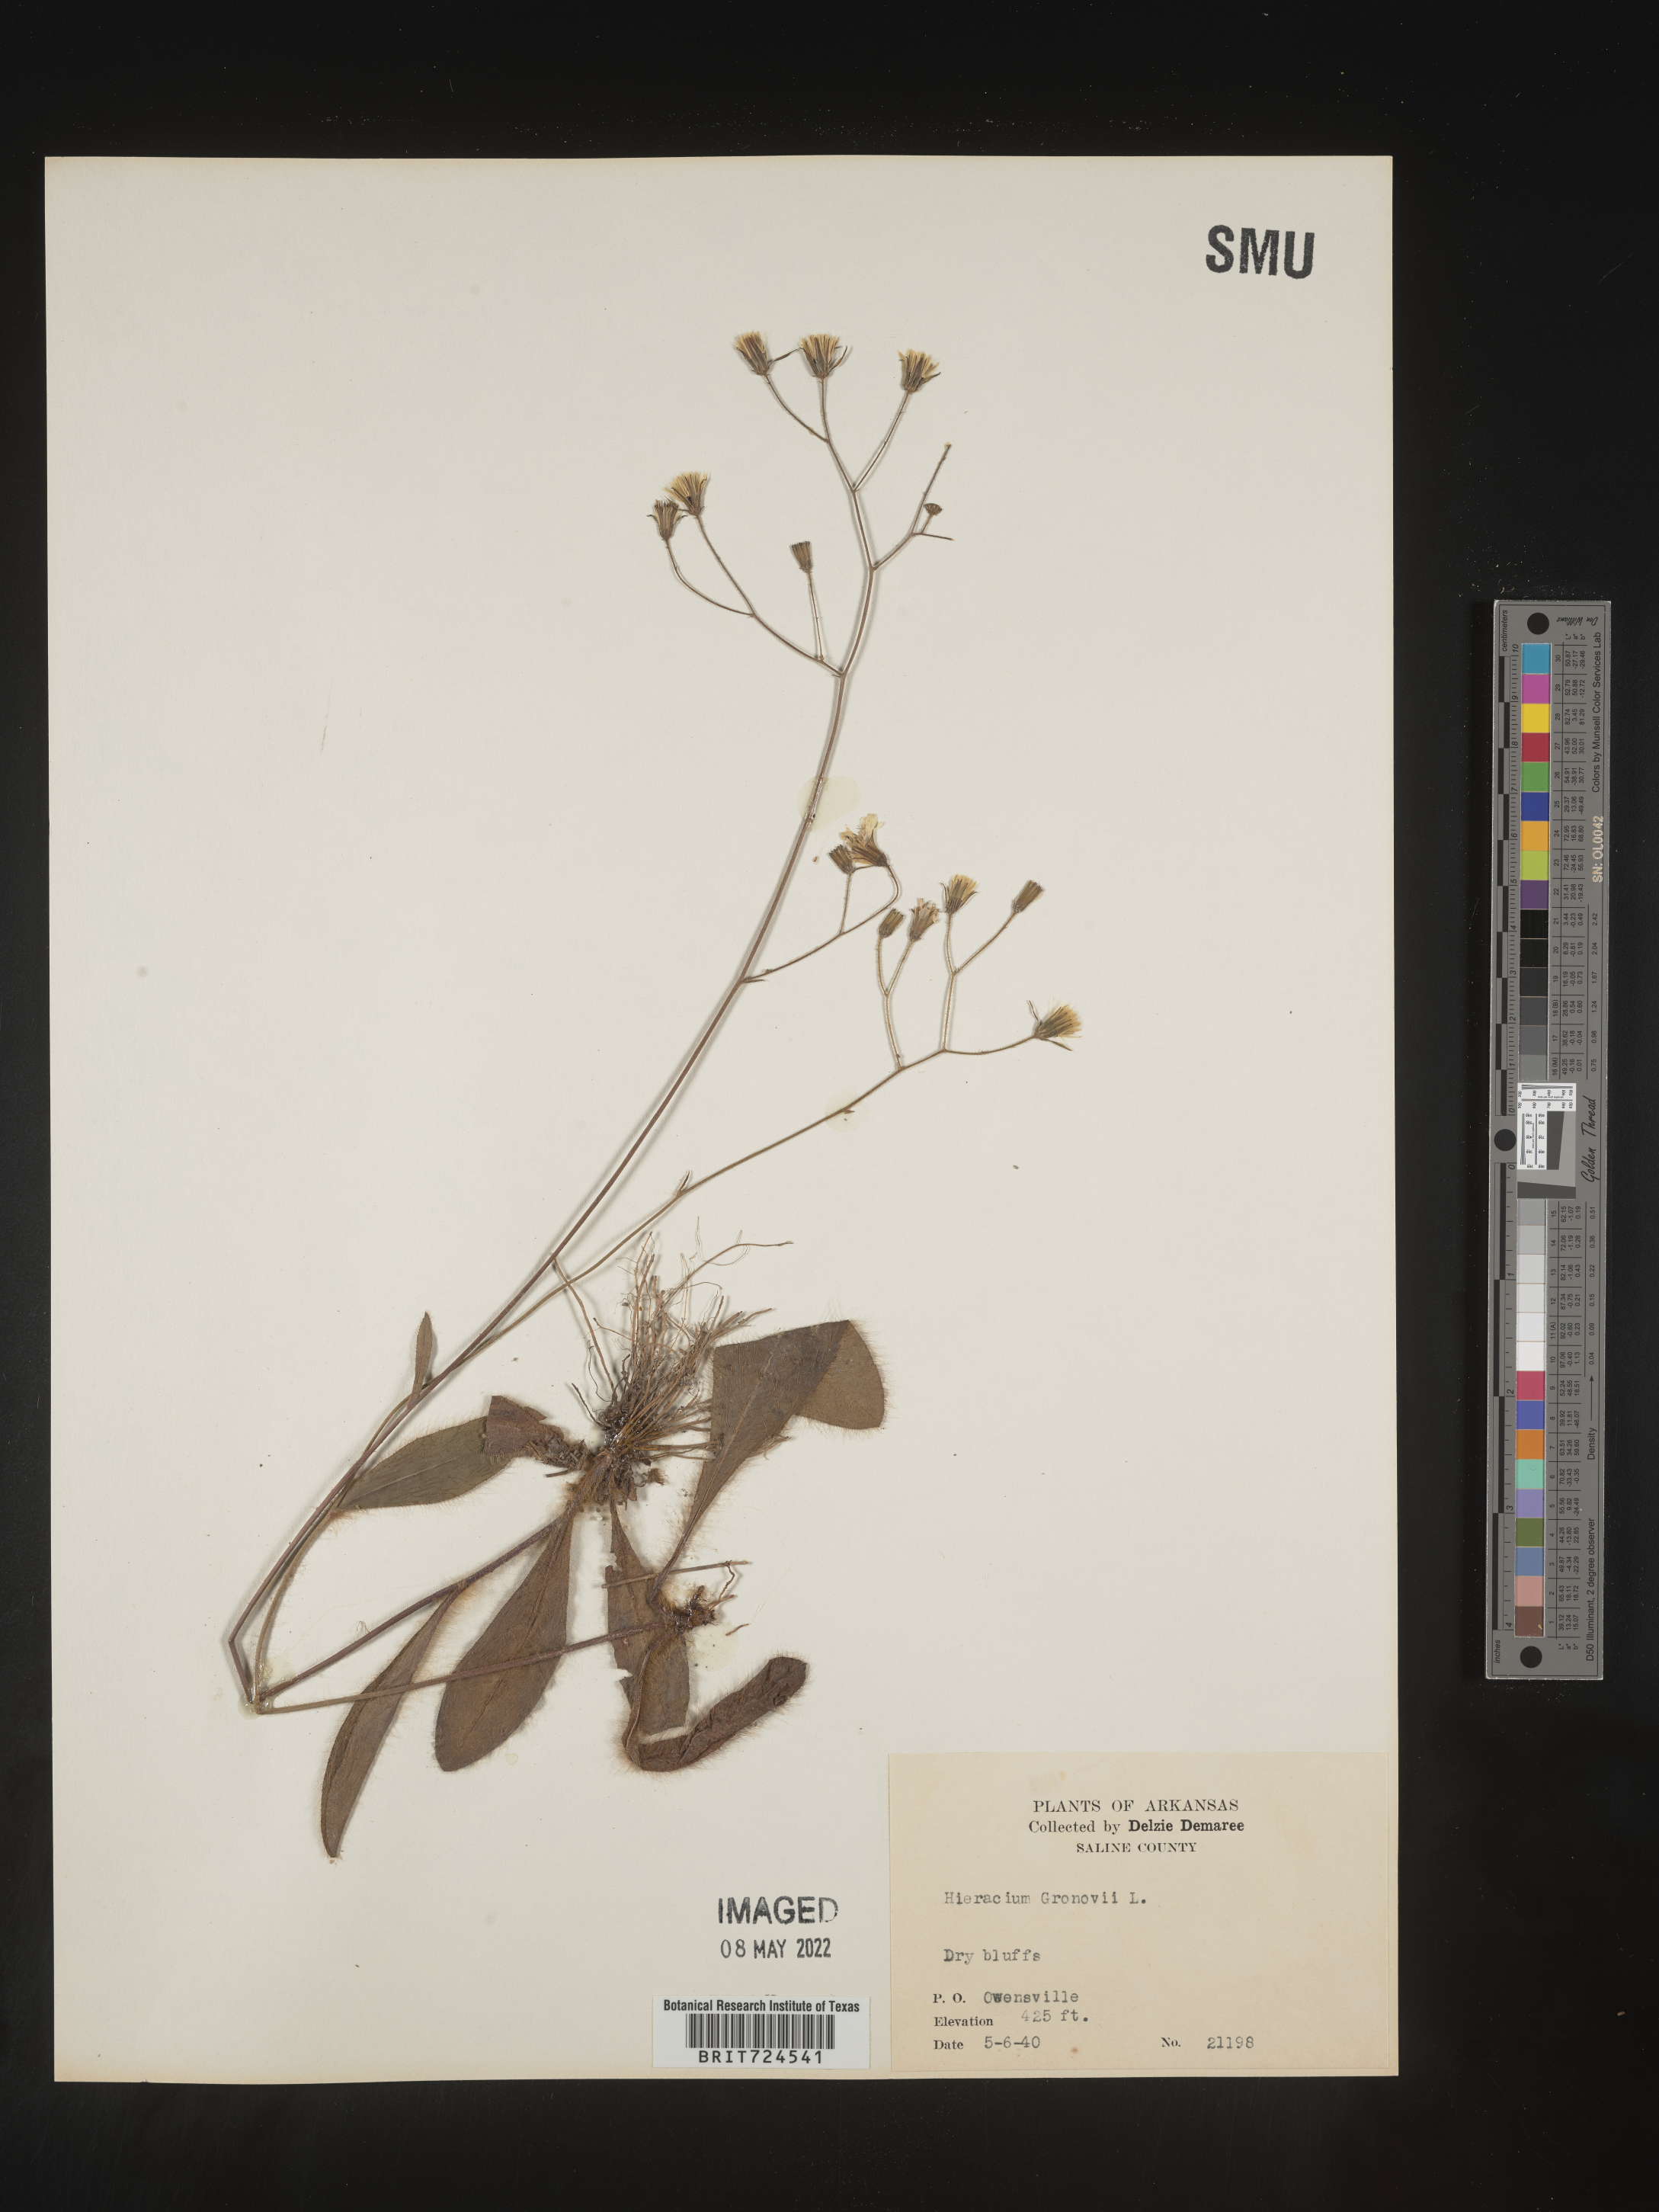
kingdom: Plantae
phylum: Tracheophyta
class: Magnoliopsida
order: Asterales
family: Asteraceae
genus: Hieracium
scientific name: Hieracium gronovii
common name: Beaked hawkweed
